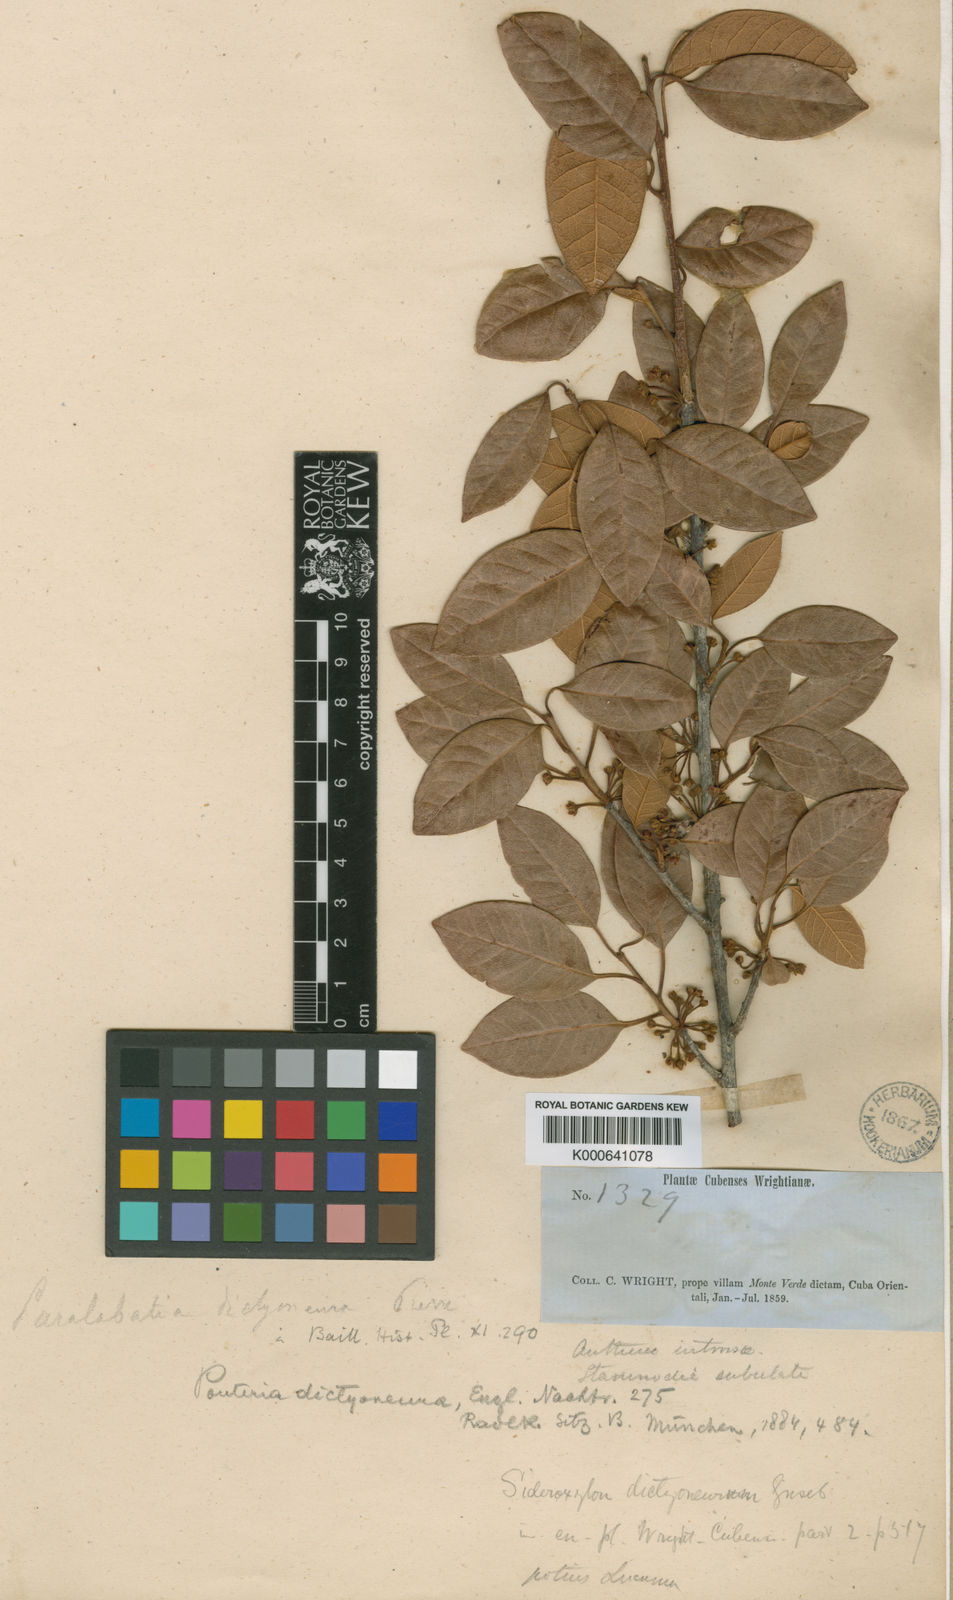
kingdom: Plantae
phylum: Tracheophyta
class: Magnoliopsida
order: Ericales
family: Sapotaceae
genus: Pouteria
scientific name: Pouteria dictyoneura
